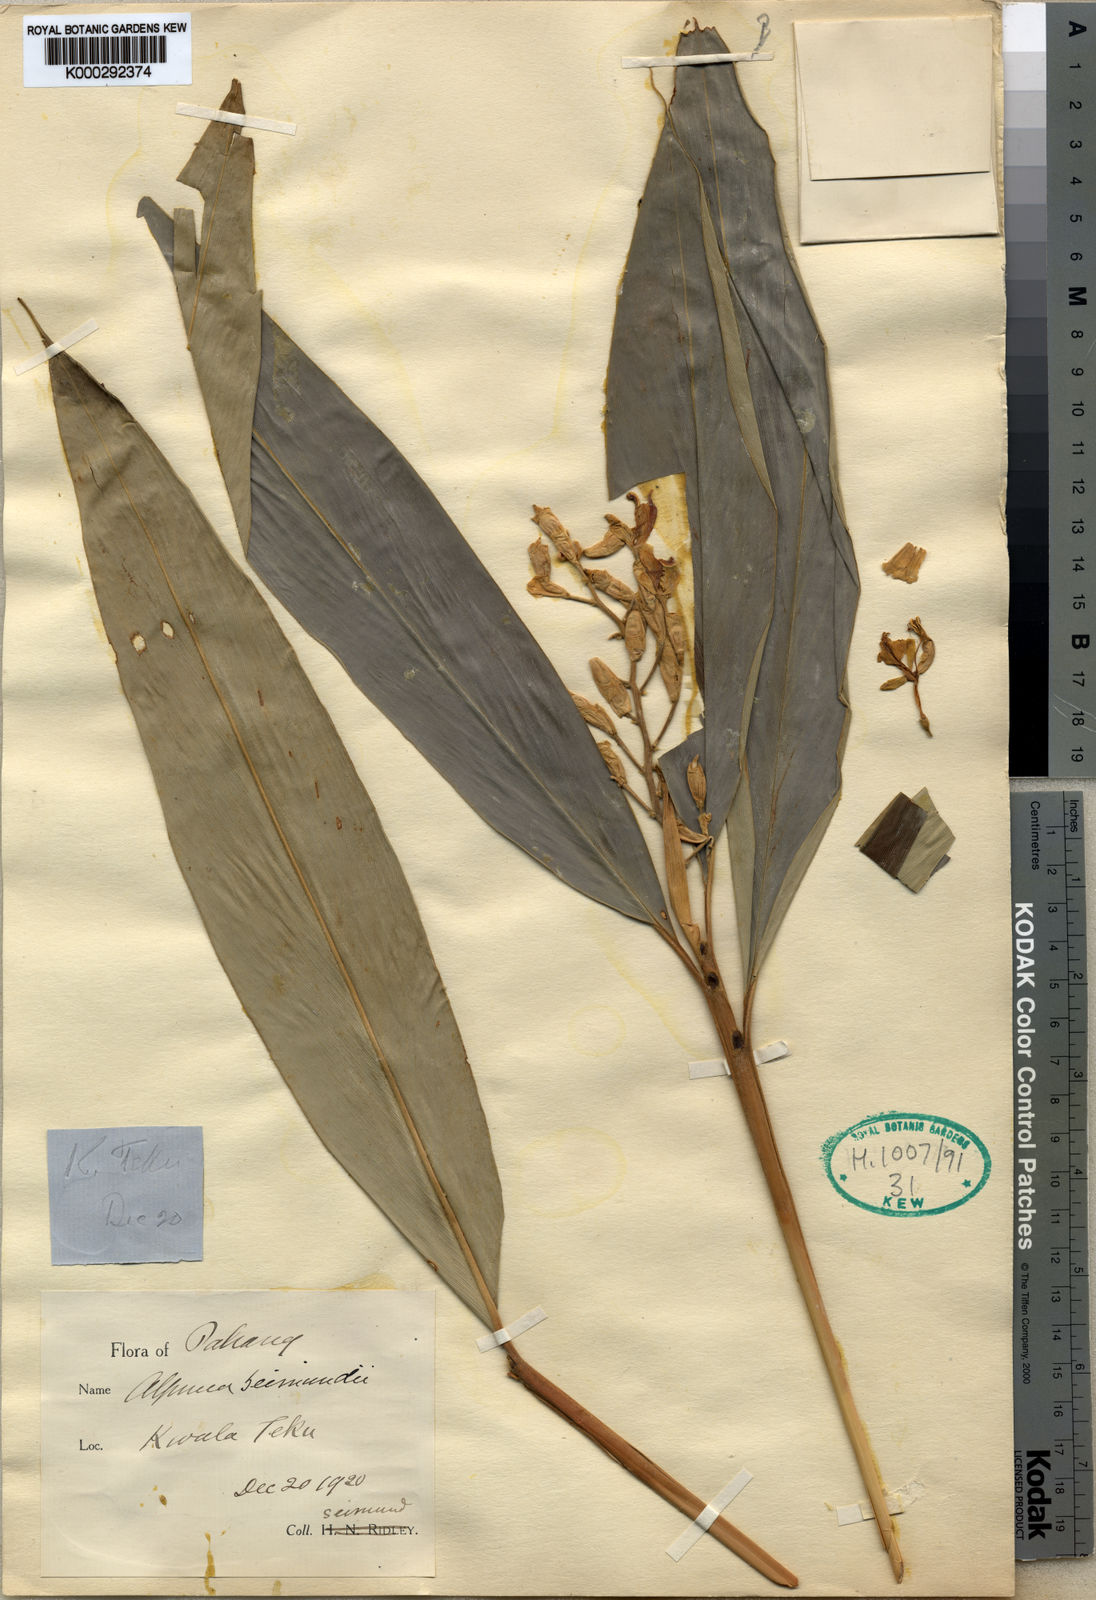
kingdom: Plantae
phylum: Tracheophyta
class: Liliopsida
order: Zingiberales
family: Zingiberaceae
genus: Alpinia
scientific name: Alpinia seimundii
